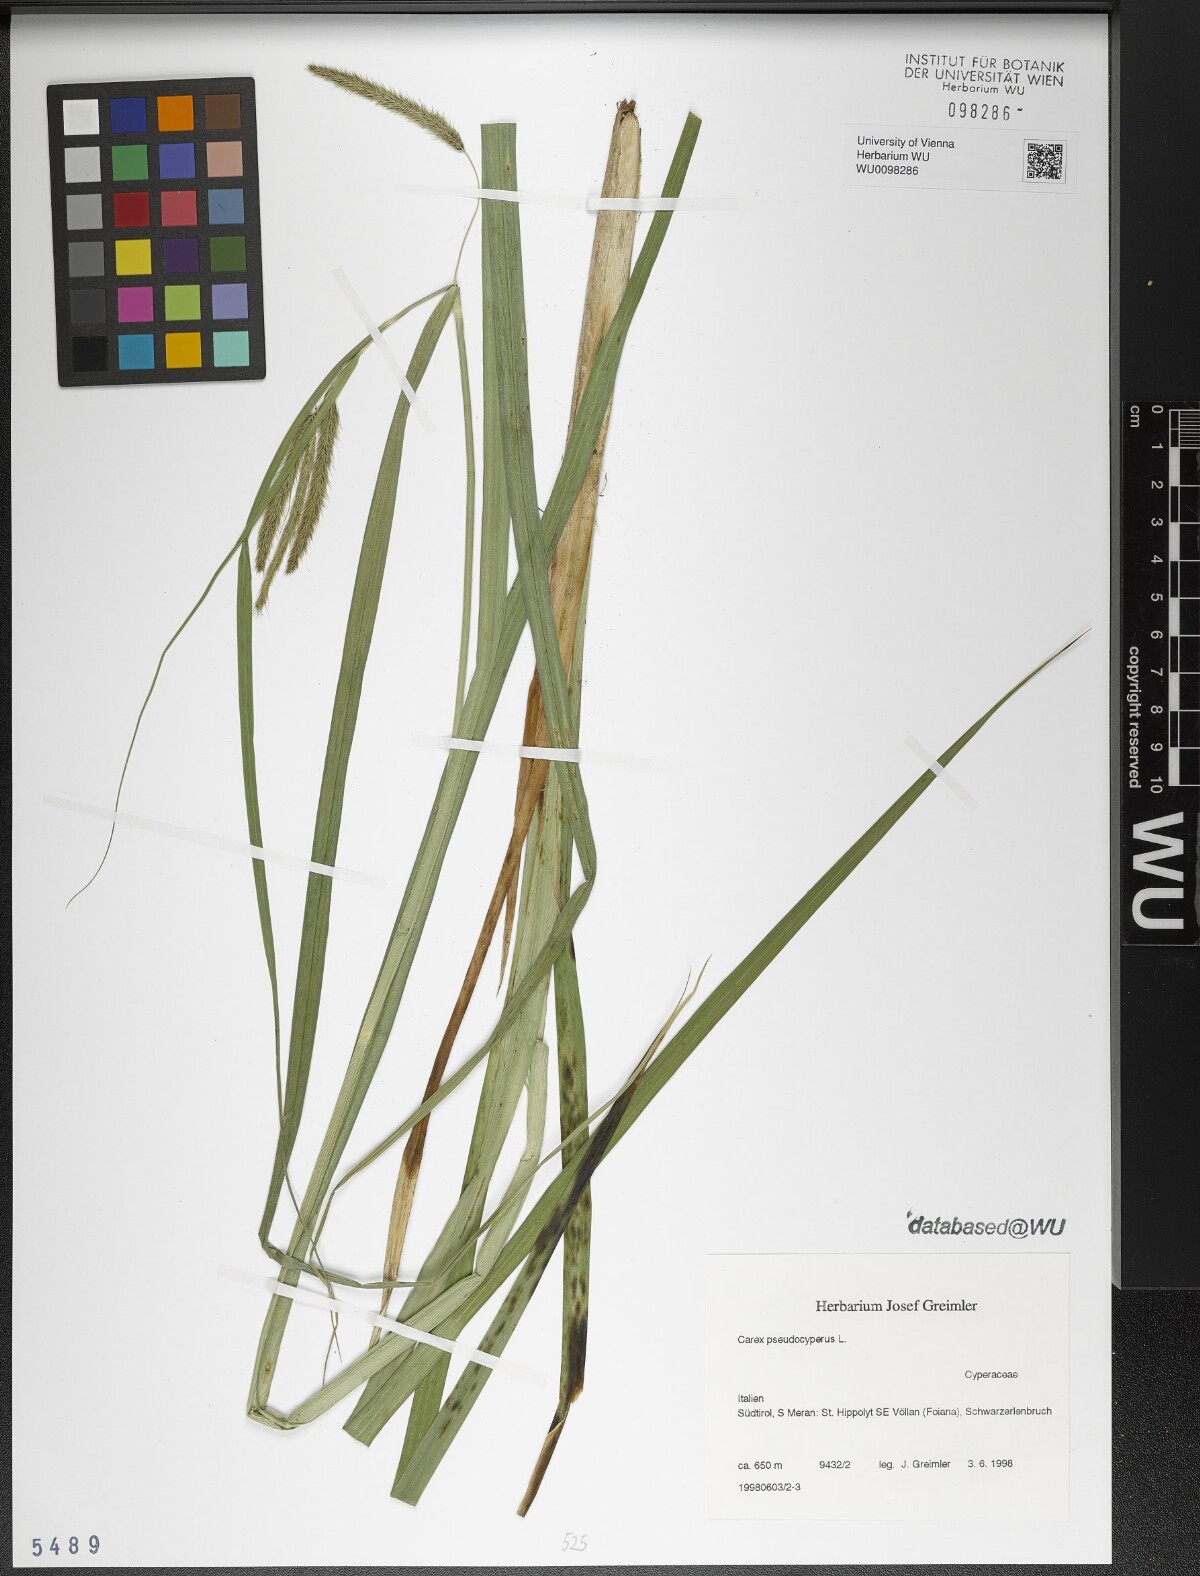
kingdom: Plantae
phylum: Tracheophyta
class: Liliopsida
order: Poales
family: Cyperaceae
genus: Carex
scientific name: Carex pseudocyperus
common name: Cyperus sedge
